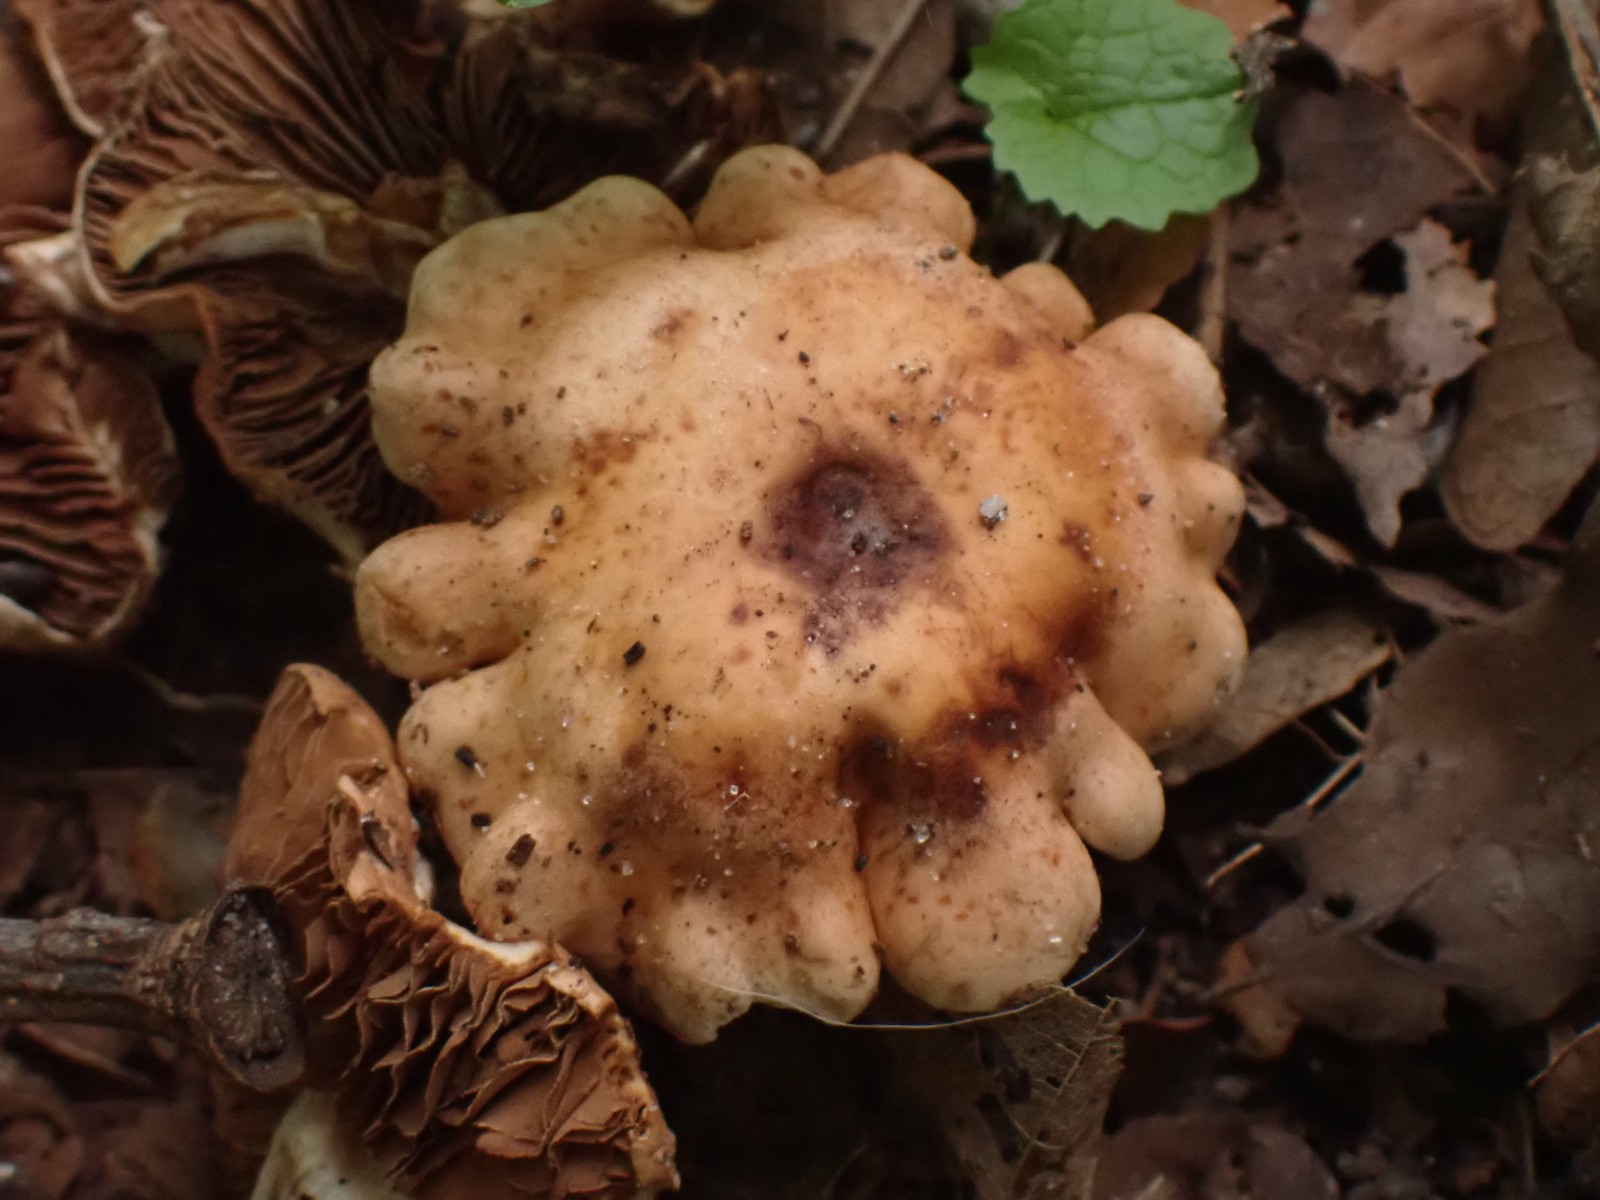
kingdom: Fungi
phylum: Basidiomycota
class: Agaricomycetes
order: Agaricales
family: Hymenogastraceae
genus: Hebeloma
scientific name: Hebeloma
